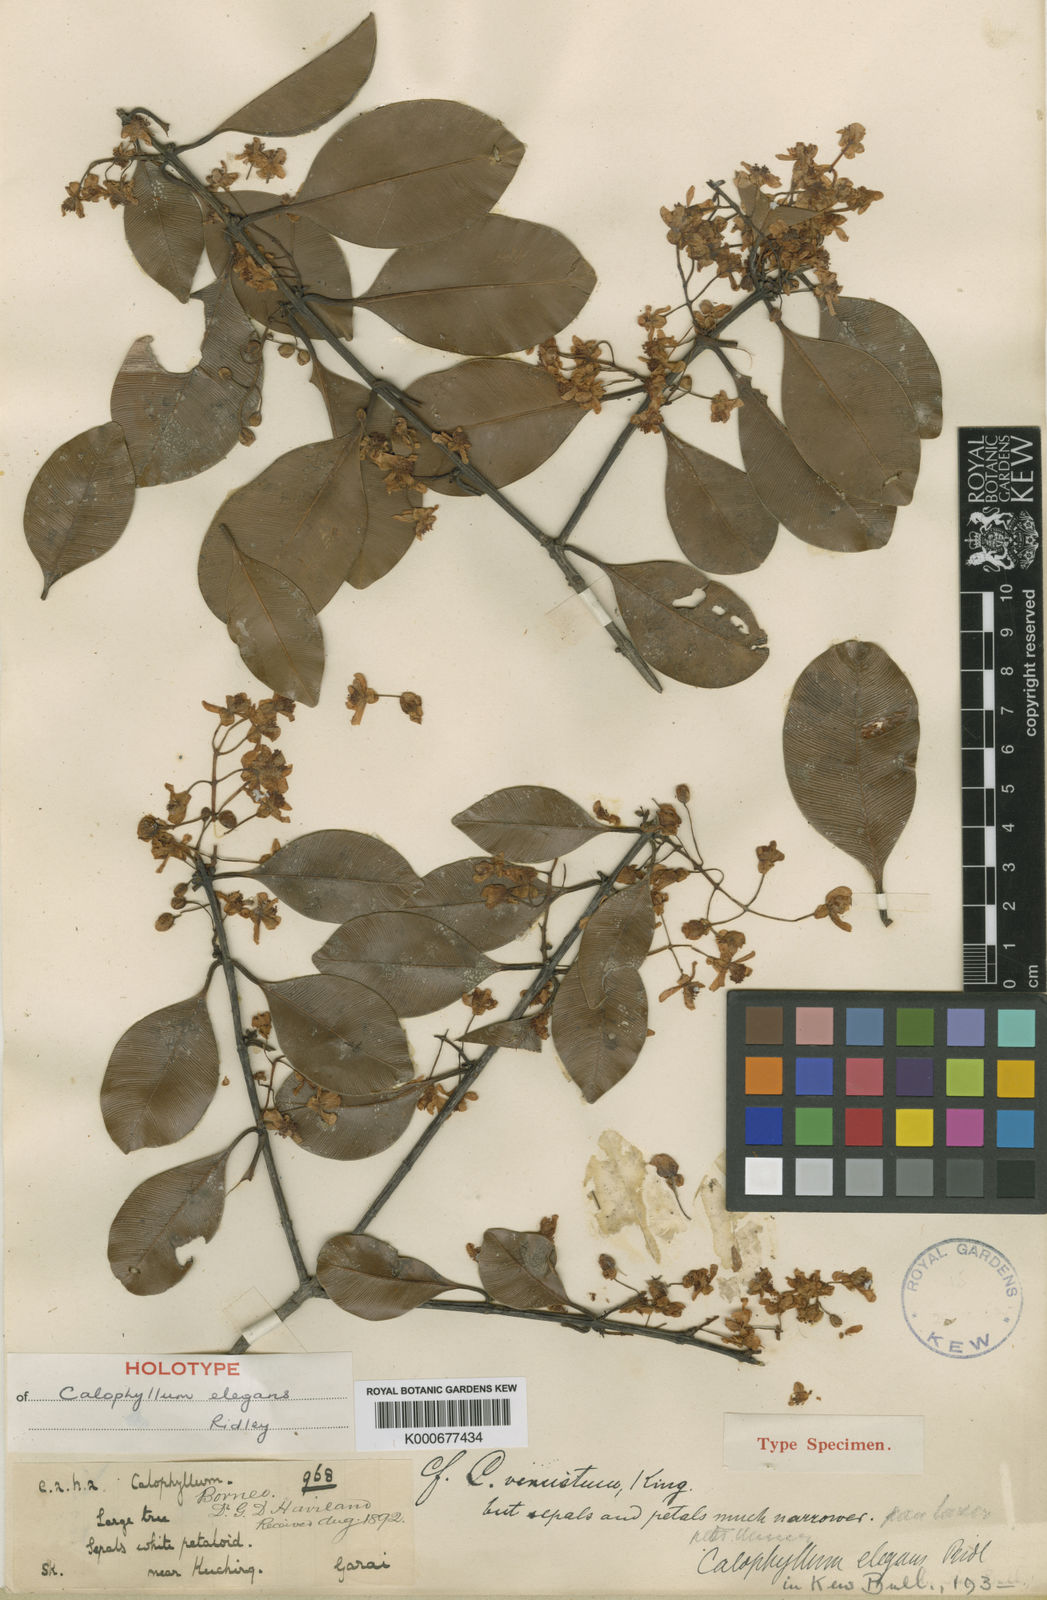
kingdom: Plantae
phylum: Tracheophyta
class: Magnoliopsida
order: Malpighiales
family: Calophyllaceae
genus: Calophyllum
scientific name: Calophyllum elegans
